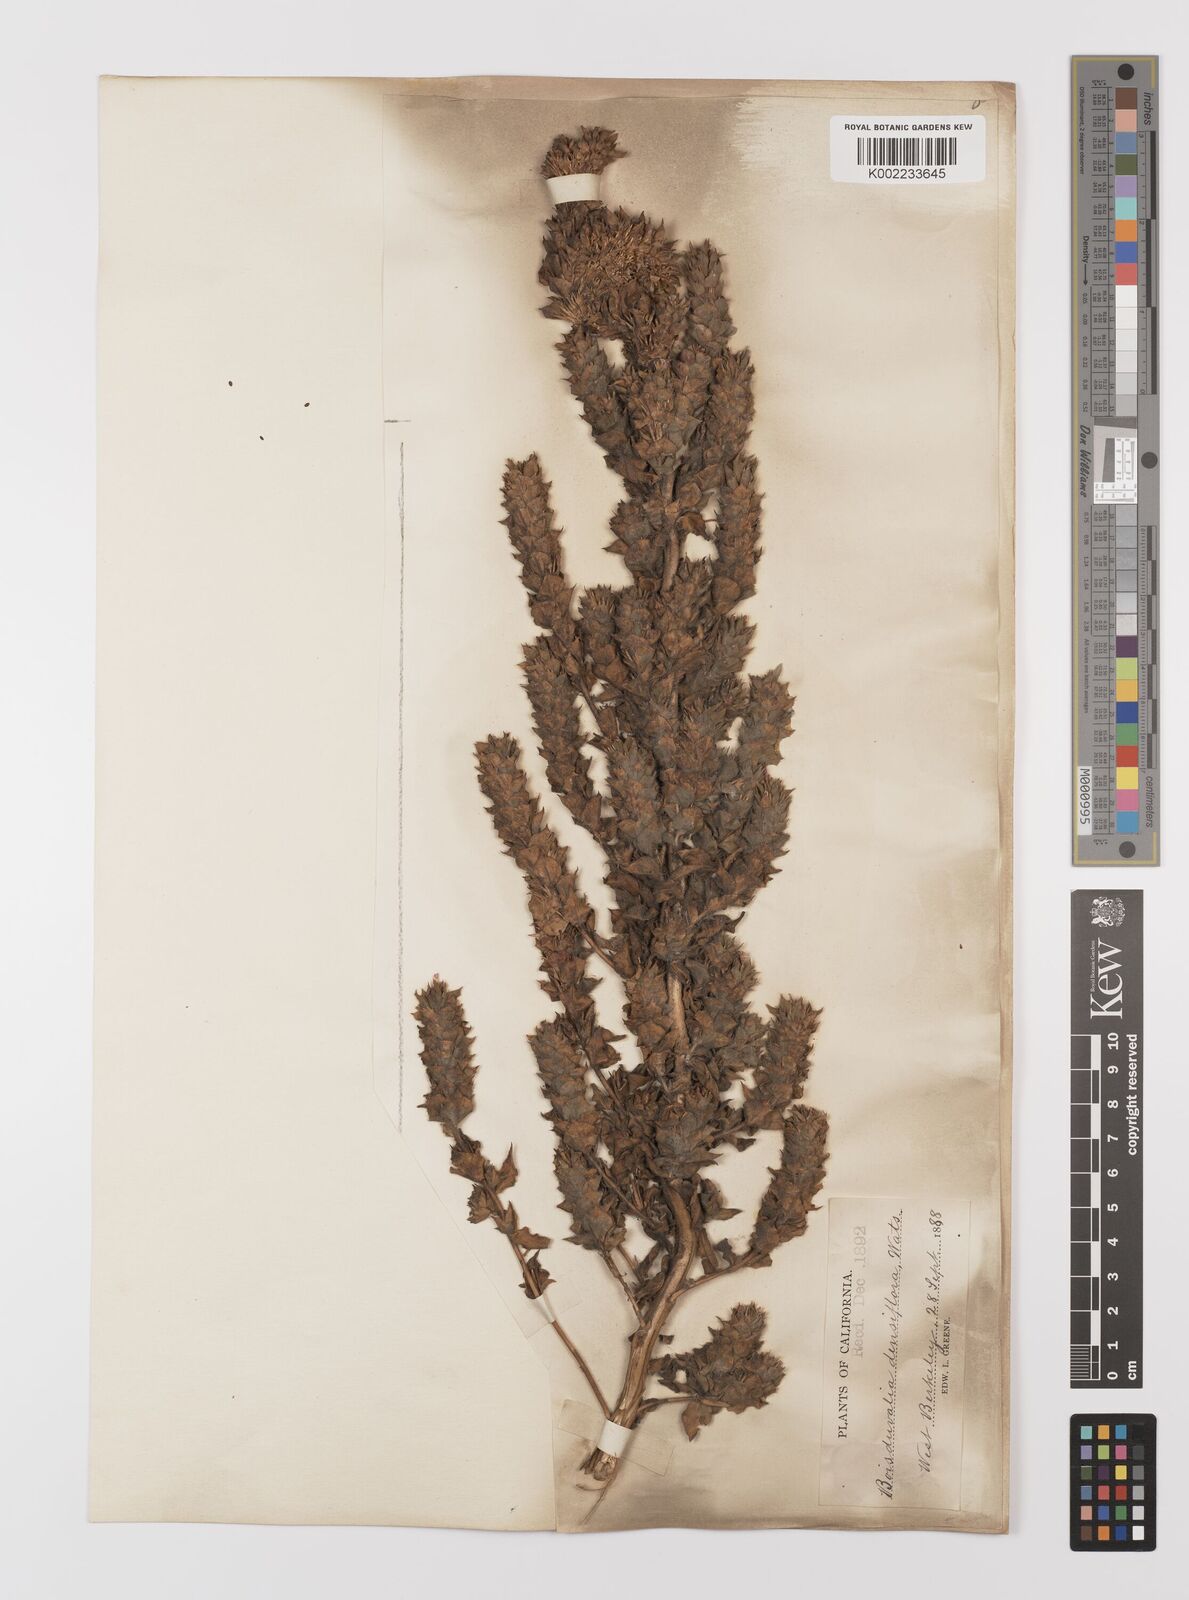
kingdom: Plantae
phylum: Tracheophyta
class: Magnoliopsida
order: Myrtales
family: Onagraceae
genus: Epilobium
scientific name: Epilobium densiflorum
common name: Dense spike-primrose
